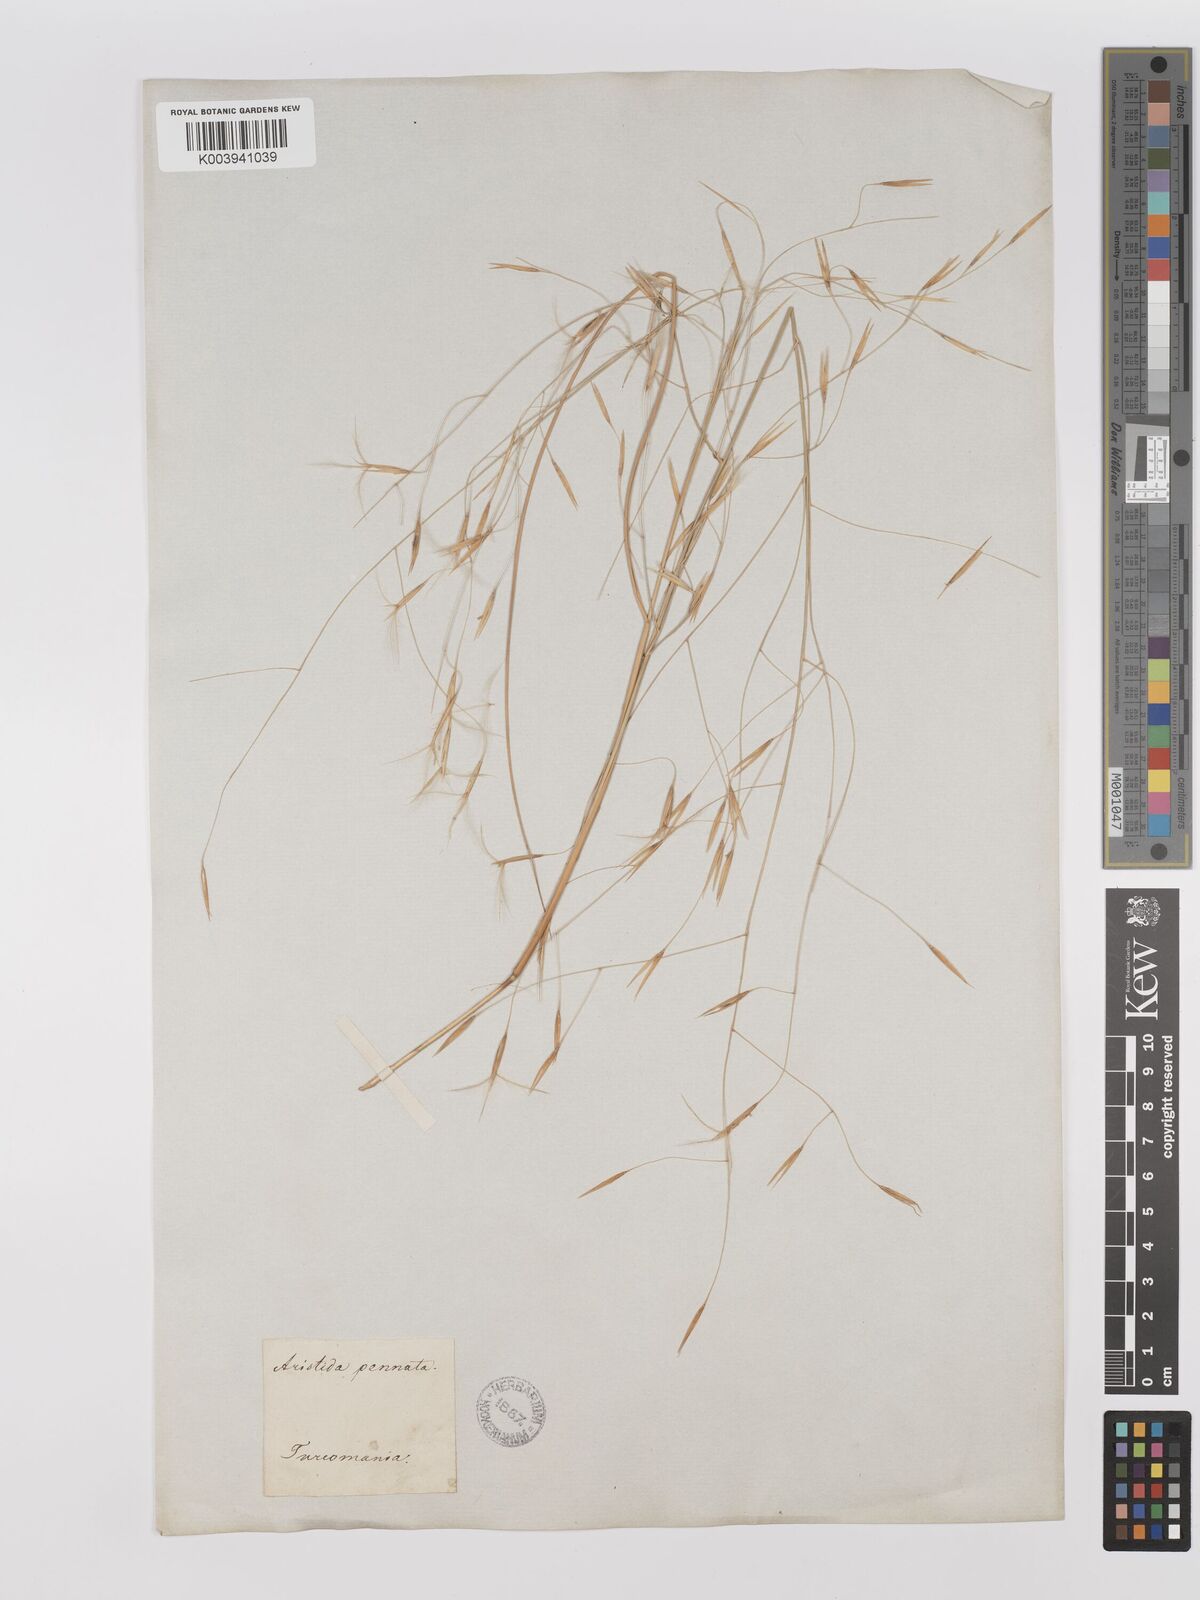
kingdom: Plantae
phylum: Tracheophyta
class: Liliopsida
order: Poales
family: Poaceae
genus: Stipagrostis
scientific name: Stipagrostis pungens
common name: Three-awn grass
